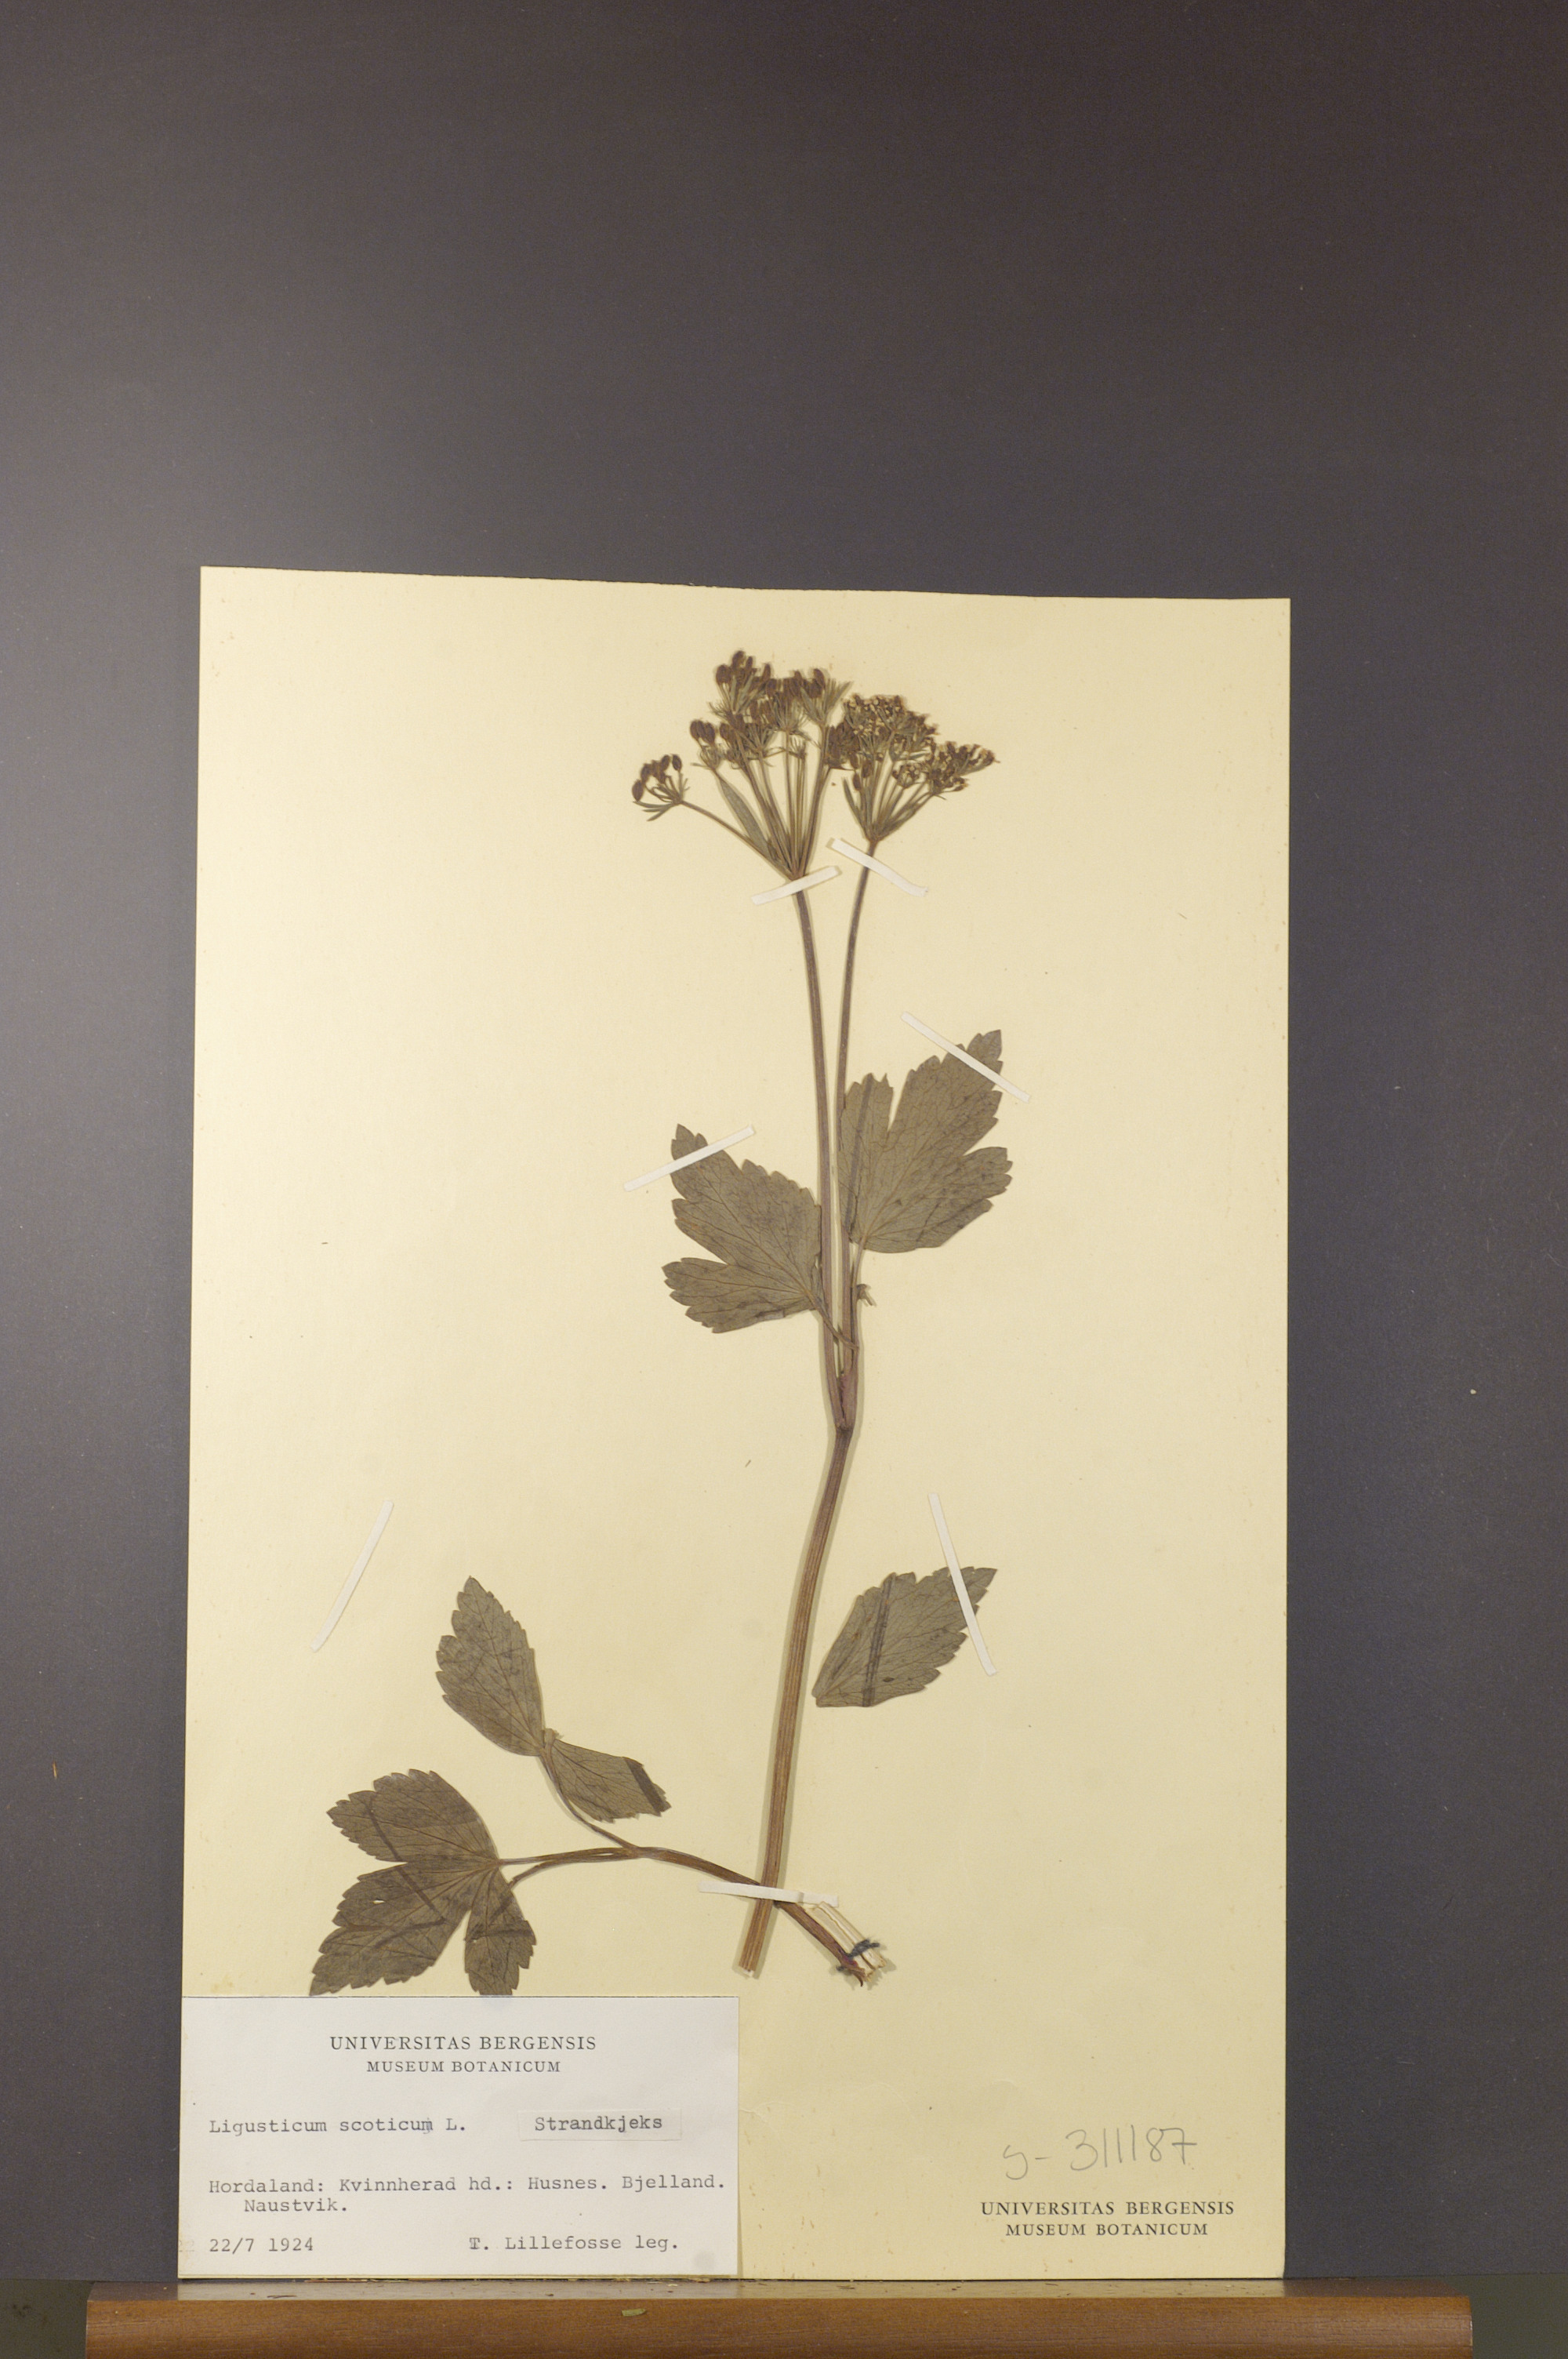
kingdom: Plantae
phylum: Tracheophyta
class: Magnoliopsida
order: Apiales
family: Apiaceae
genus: Ligusticum
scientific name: Ligusticum scothicum
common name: Beach lovage
